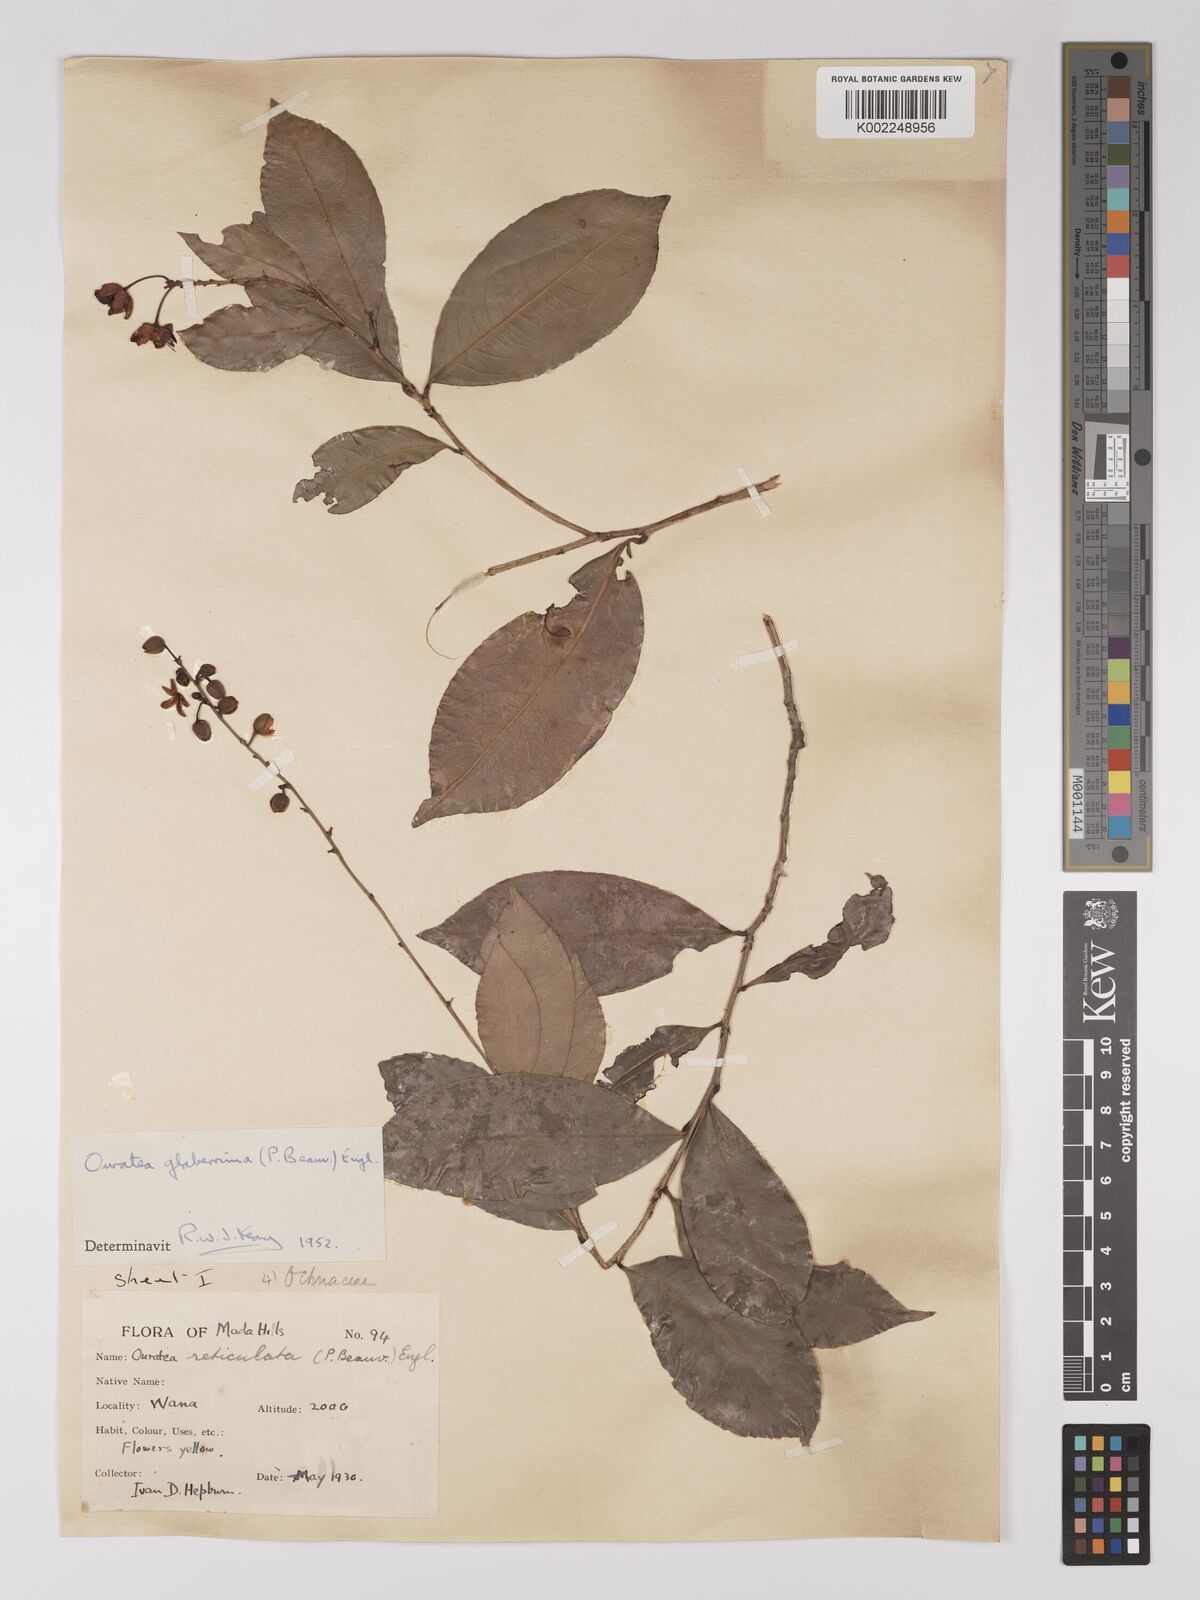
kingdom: Plantae
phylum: Tracheophyta
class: Magnoliopsida
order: Malpighiales
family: Ochnaceae
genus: Campylospermum
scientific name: Campylospermum glaberrimum
